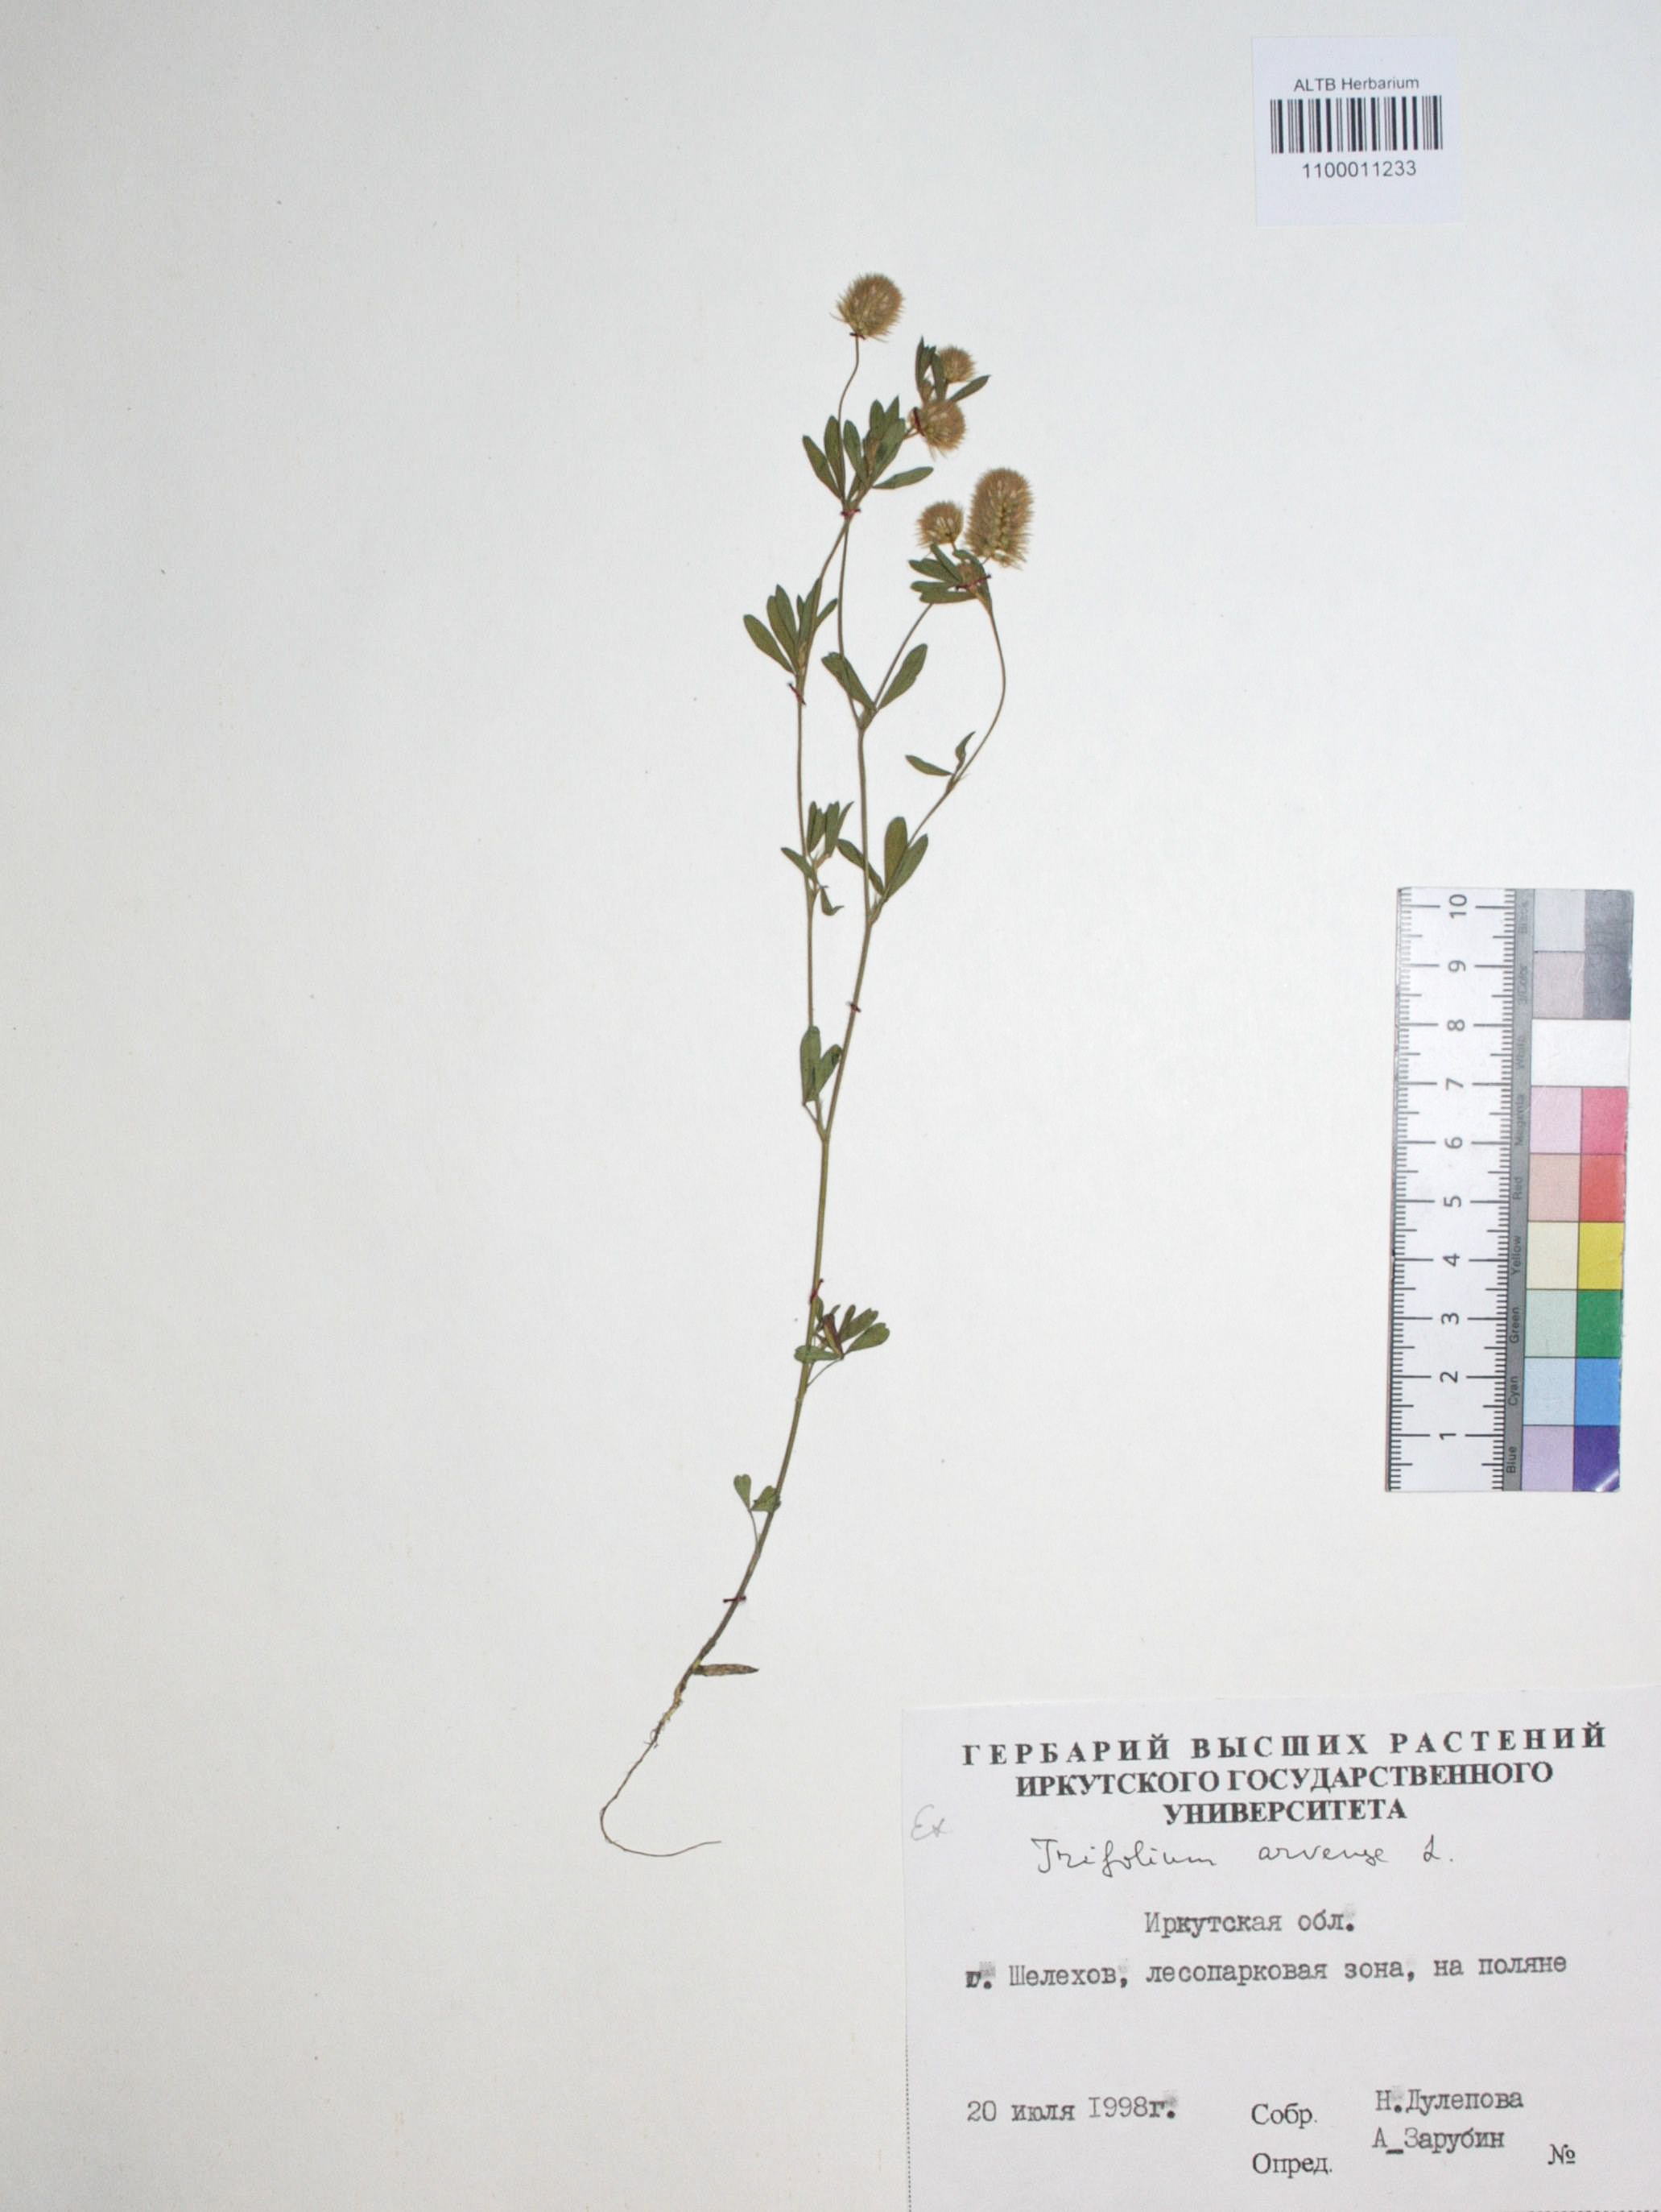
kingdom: Plantae
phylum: Tracheophyta
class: Magnoliopsida
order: Fabales
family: Fabaceae
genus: Trifolium
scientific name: Trifolium arvense
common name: Hare's-foot clover
